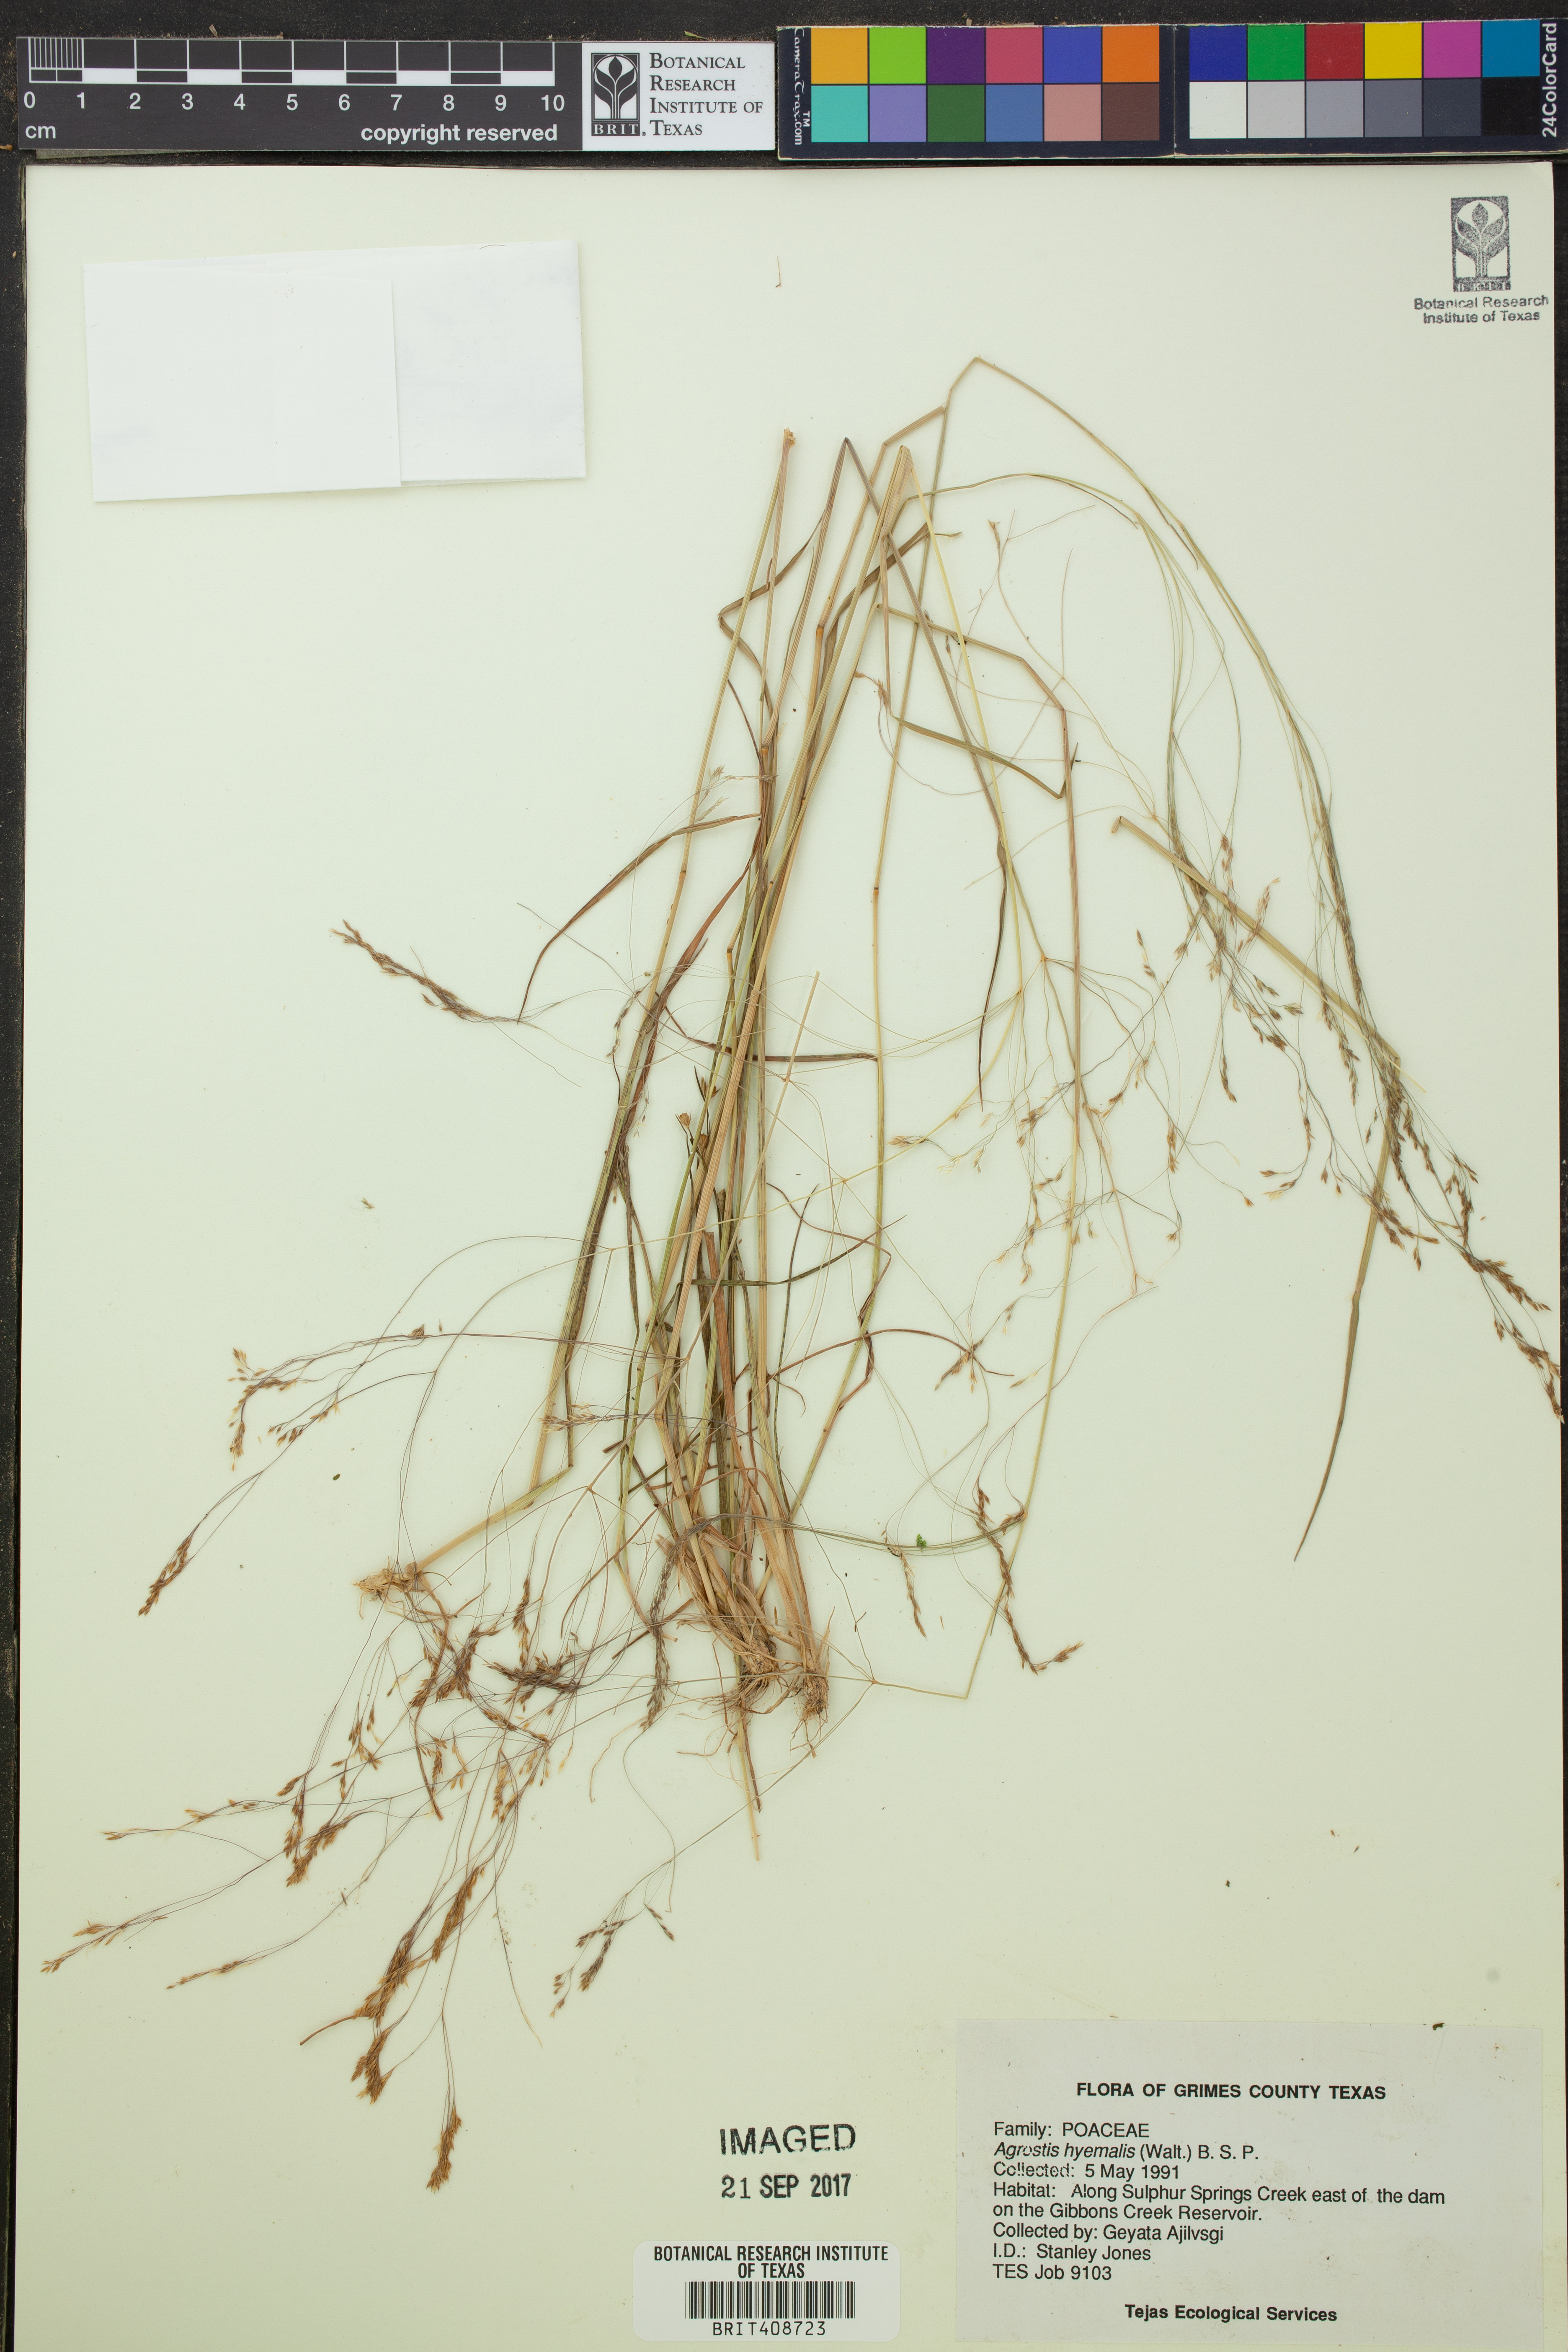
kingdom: Plantae
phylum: Tracheophyta
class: Liliopsida
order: Poales
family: Poaceae
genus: Agrostis
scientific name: Agrostis hyemalis
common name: Small bent
